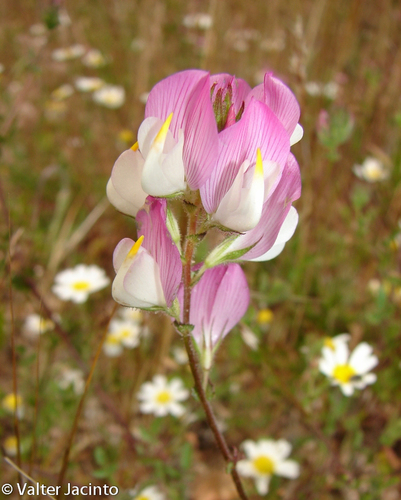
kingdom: Plantae
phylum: Tracheophyta
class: Magnoliopsida
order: Fabales
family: Fabaceae
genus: Ononis
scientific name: Ononis subspicata
